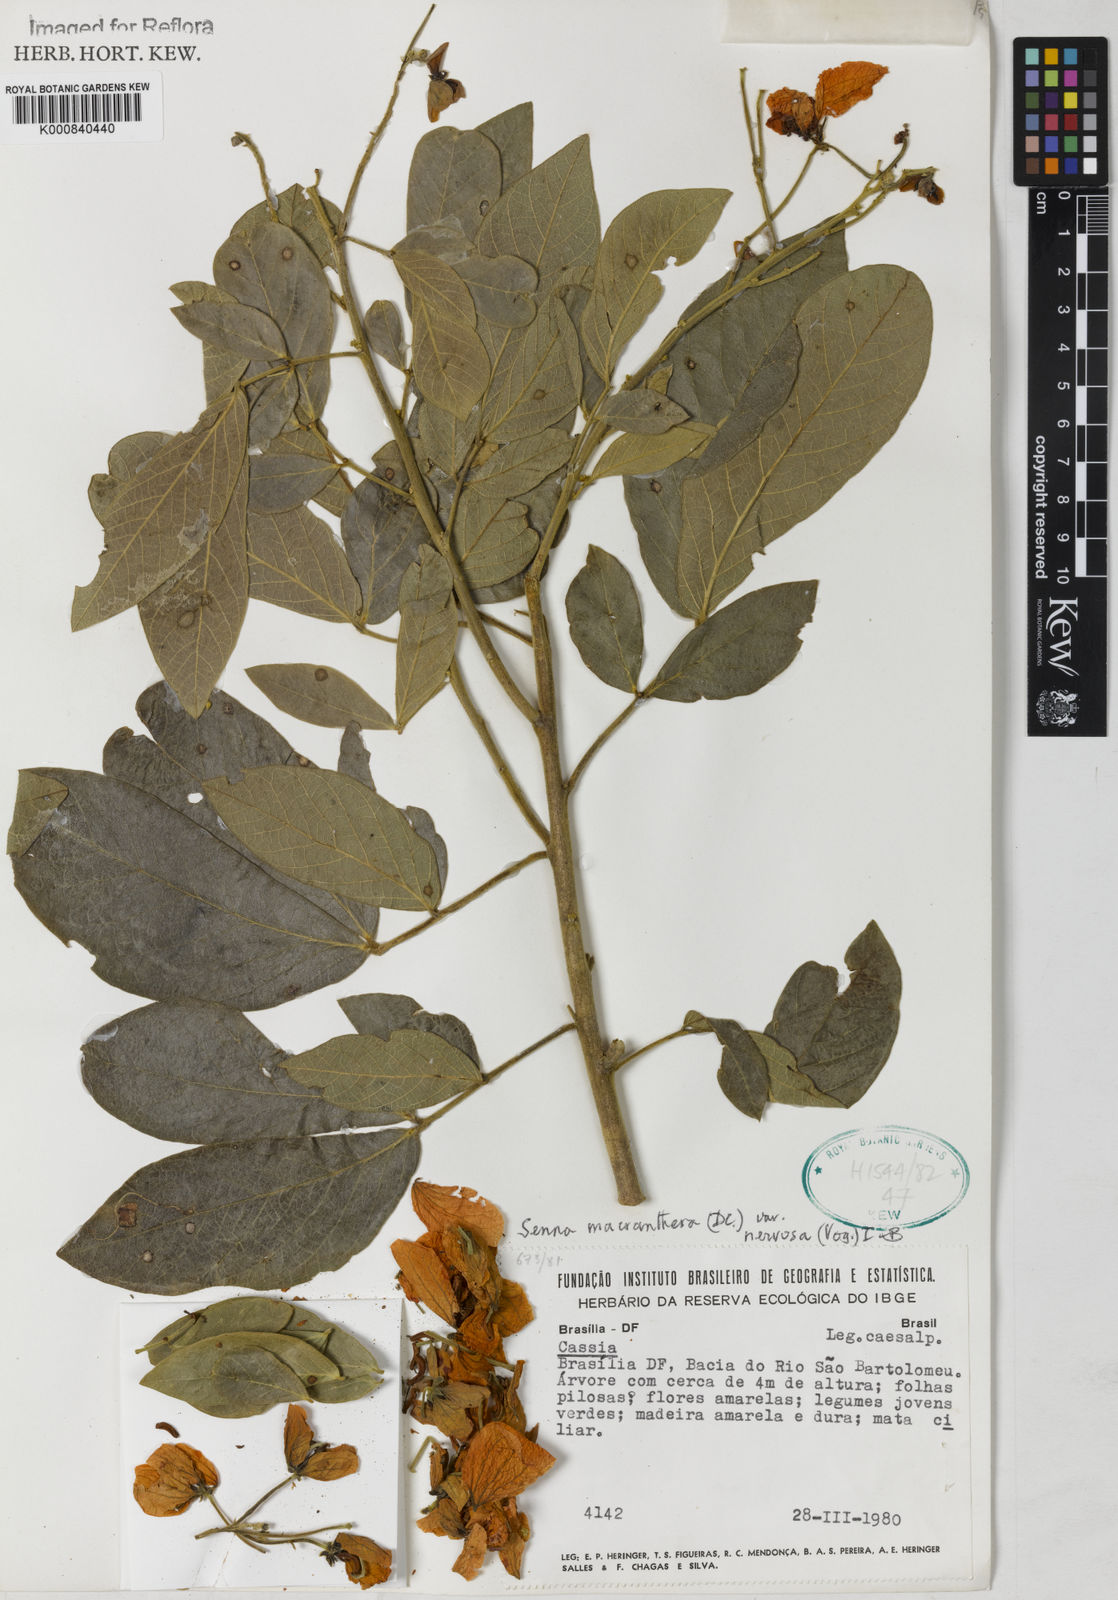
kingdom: Plantae
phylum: Tracheophyta
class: Magnoliopsida
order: Fabales
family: Fabaceae
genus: Senna
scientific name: Senna macranthera
